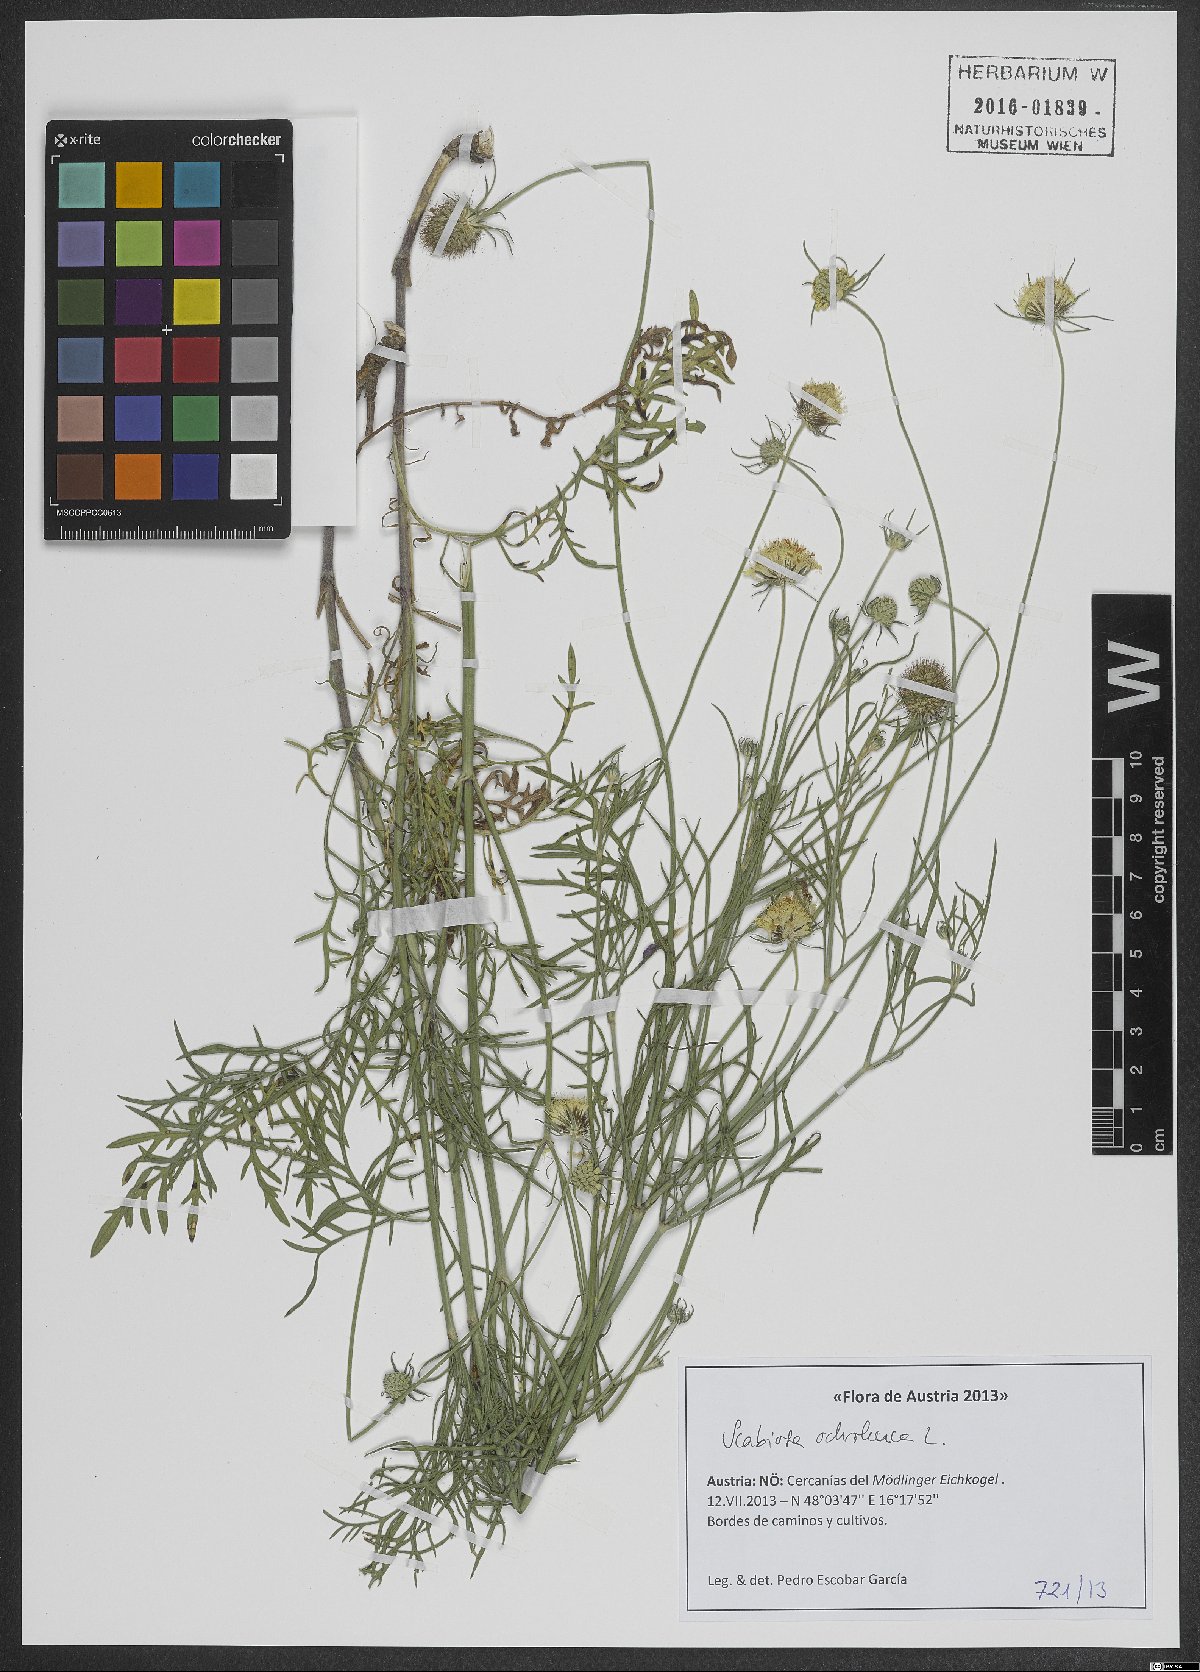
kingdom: Plantae
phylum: Tracheophyta
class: Magnoliopsida
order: Dipsacales
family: Caprifoliaceae
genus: Scabiosa
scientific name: Scabiosa ochroleuca
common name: Cream pincushions
